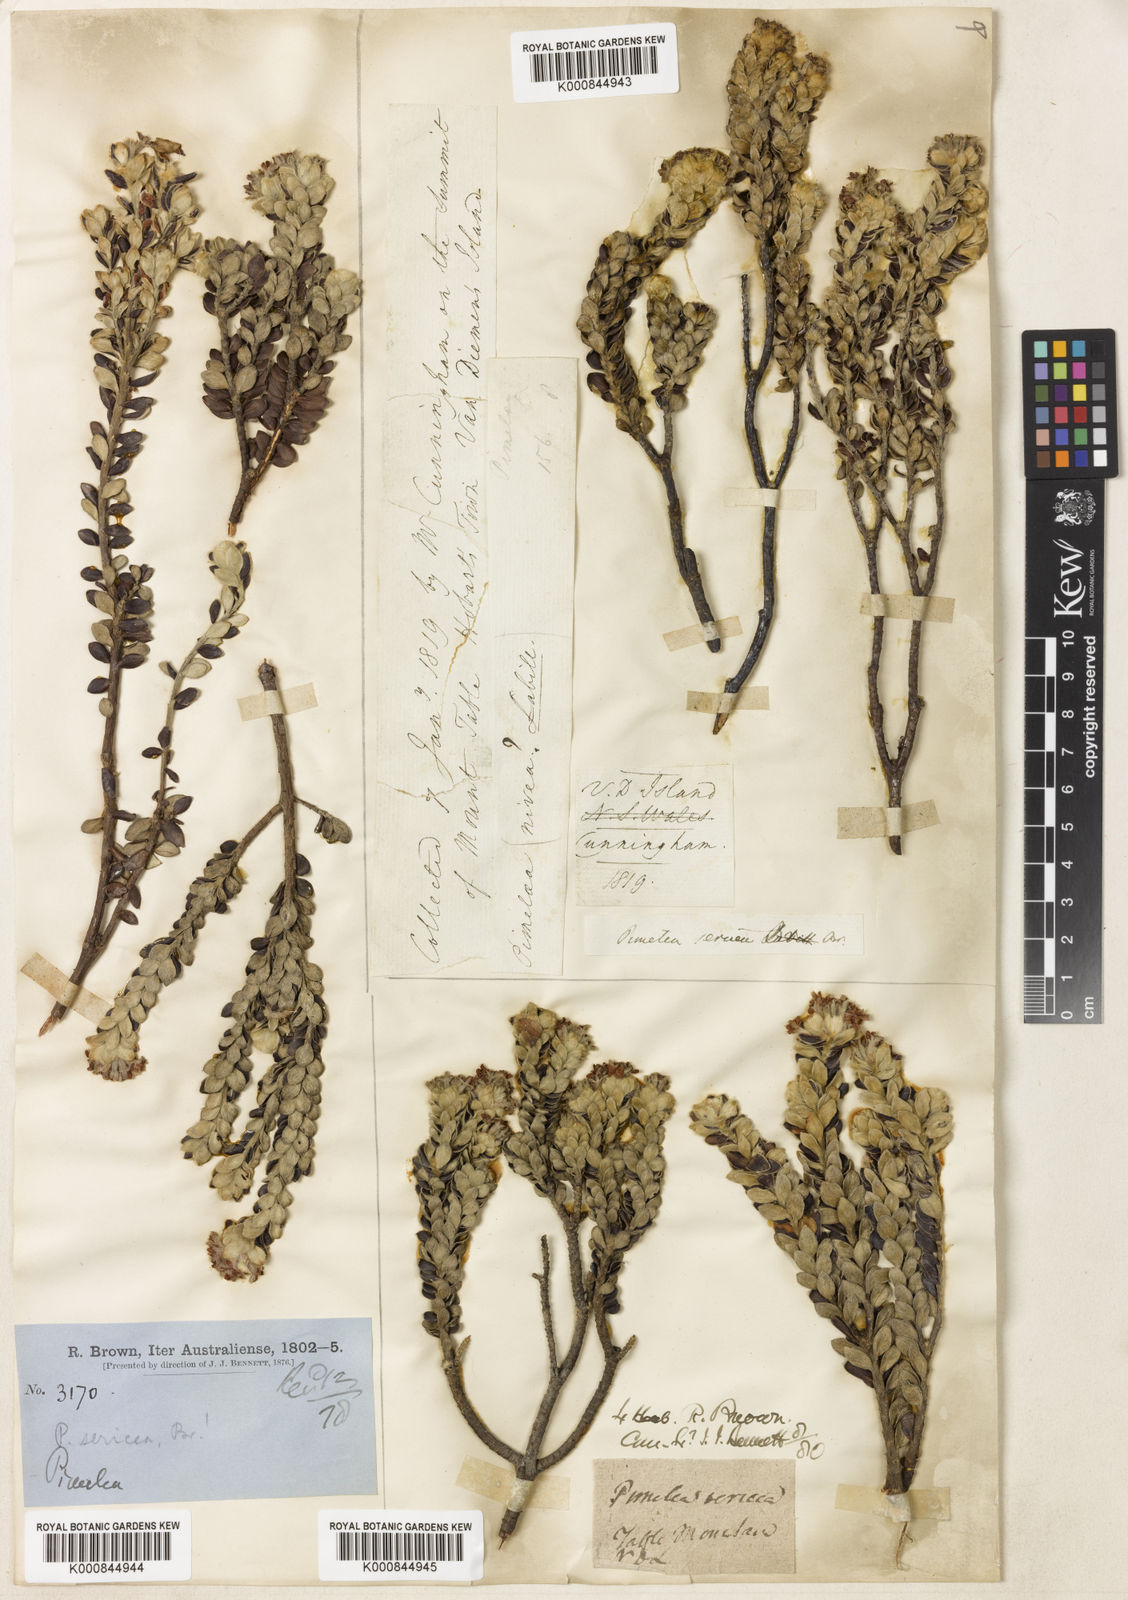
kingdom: Plantae
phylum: Tracheophyta
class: Magnoliopsida
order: Malvales
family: Thymelaeaceae
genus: Pimelea
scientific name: Pimelea sericea
